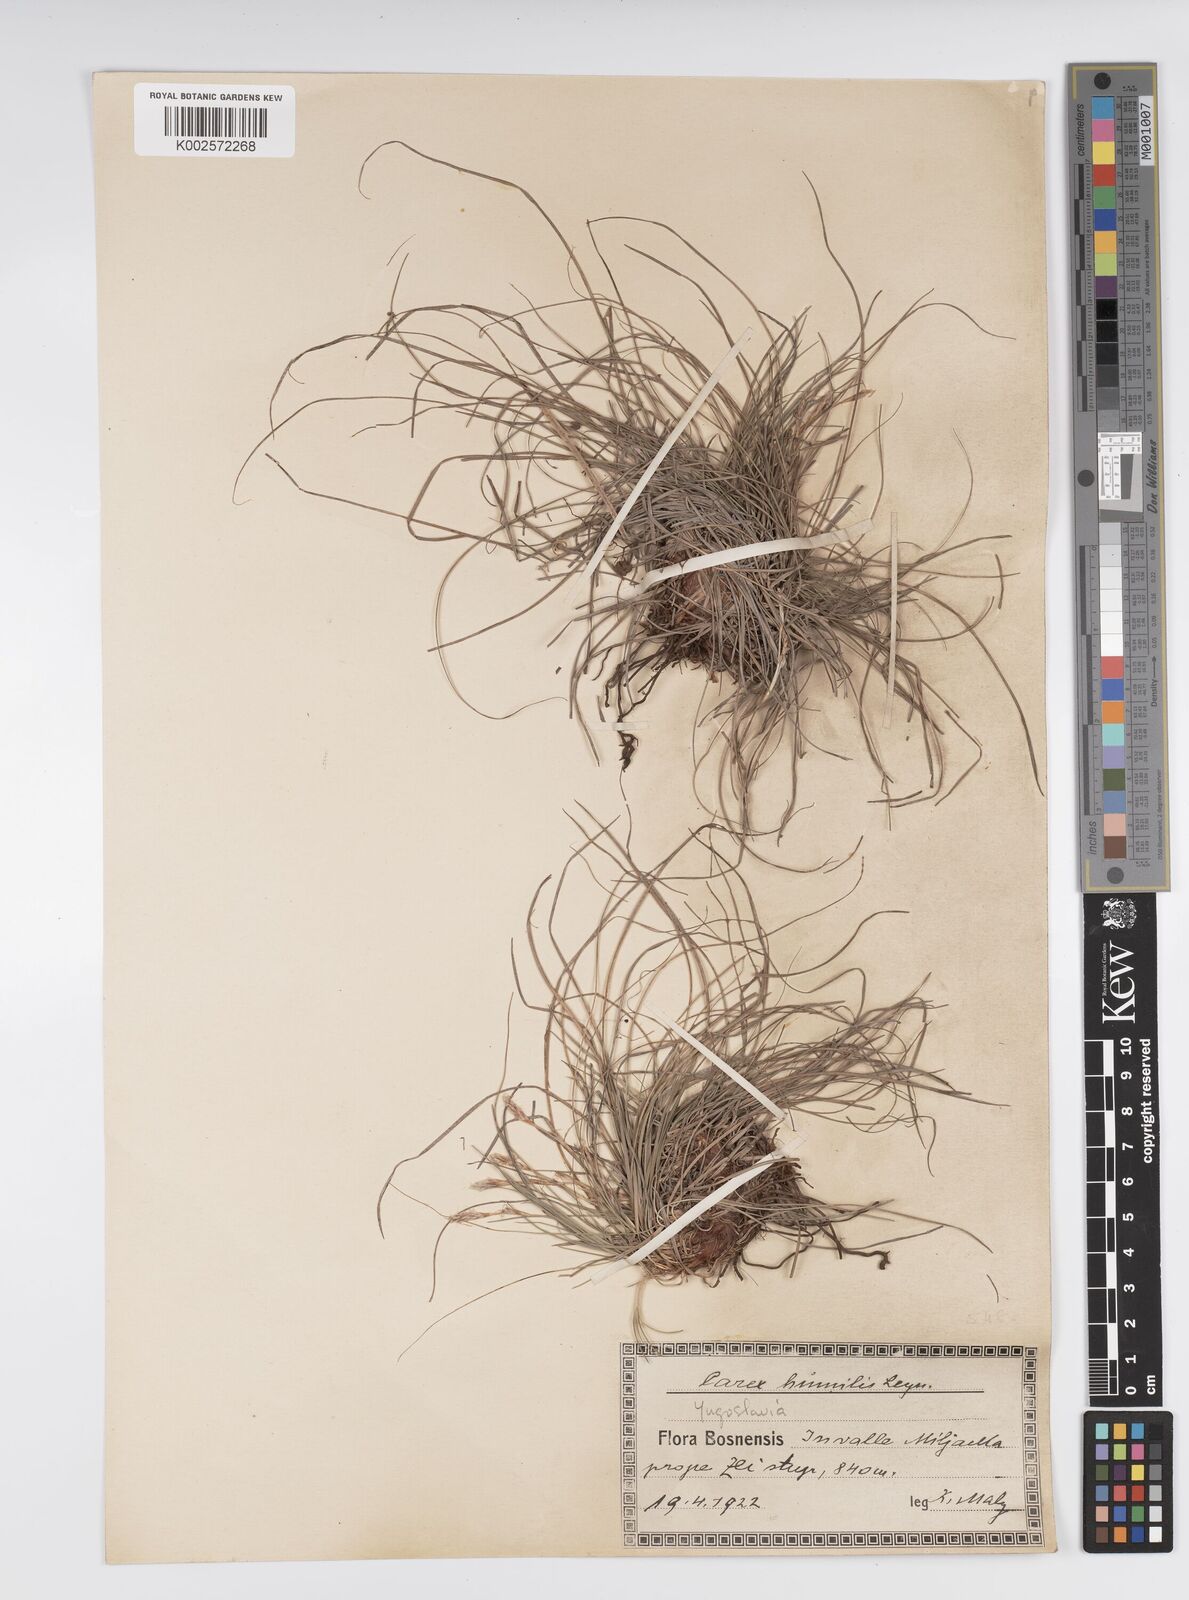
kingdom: Plantae
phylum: Tracheophyta
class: Liliopsida
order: Poales
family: Cyperaceae
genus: Carex
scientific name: Carex humilis
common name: Dwarf sedge
